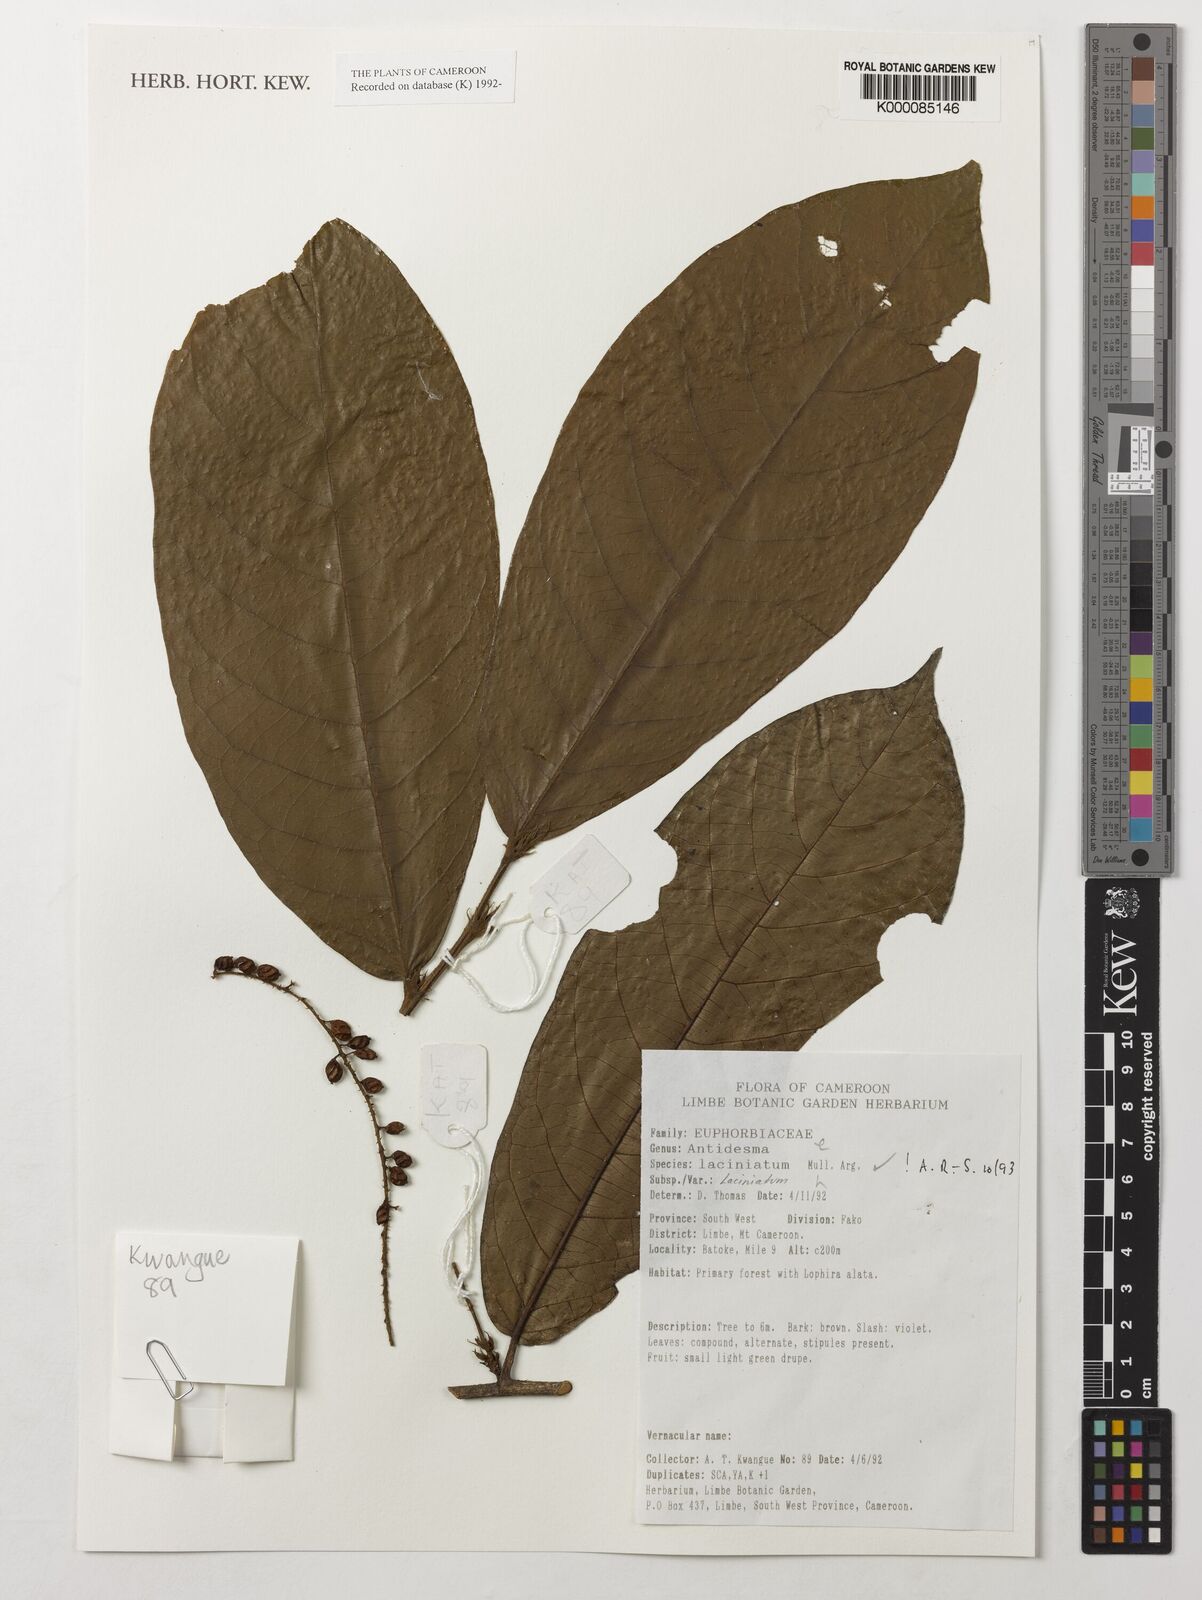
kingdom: Plantae
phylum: Tracheophyta
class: Magnoliopsida
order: Malpighiales
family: Phyllanthaceae
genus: Antidesma
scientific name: Antidesma
